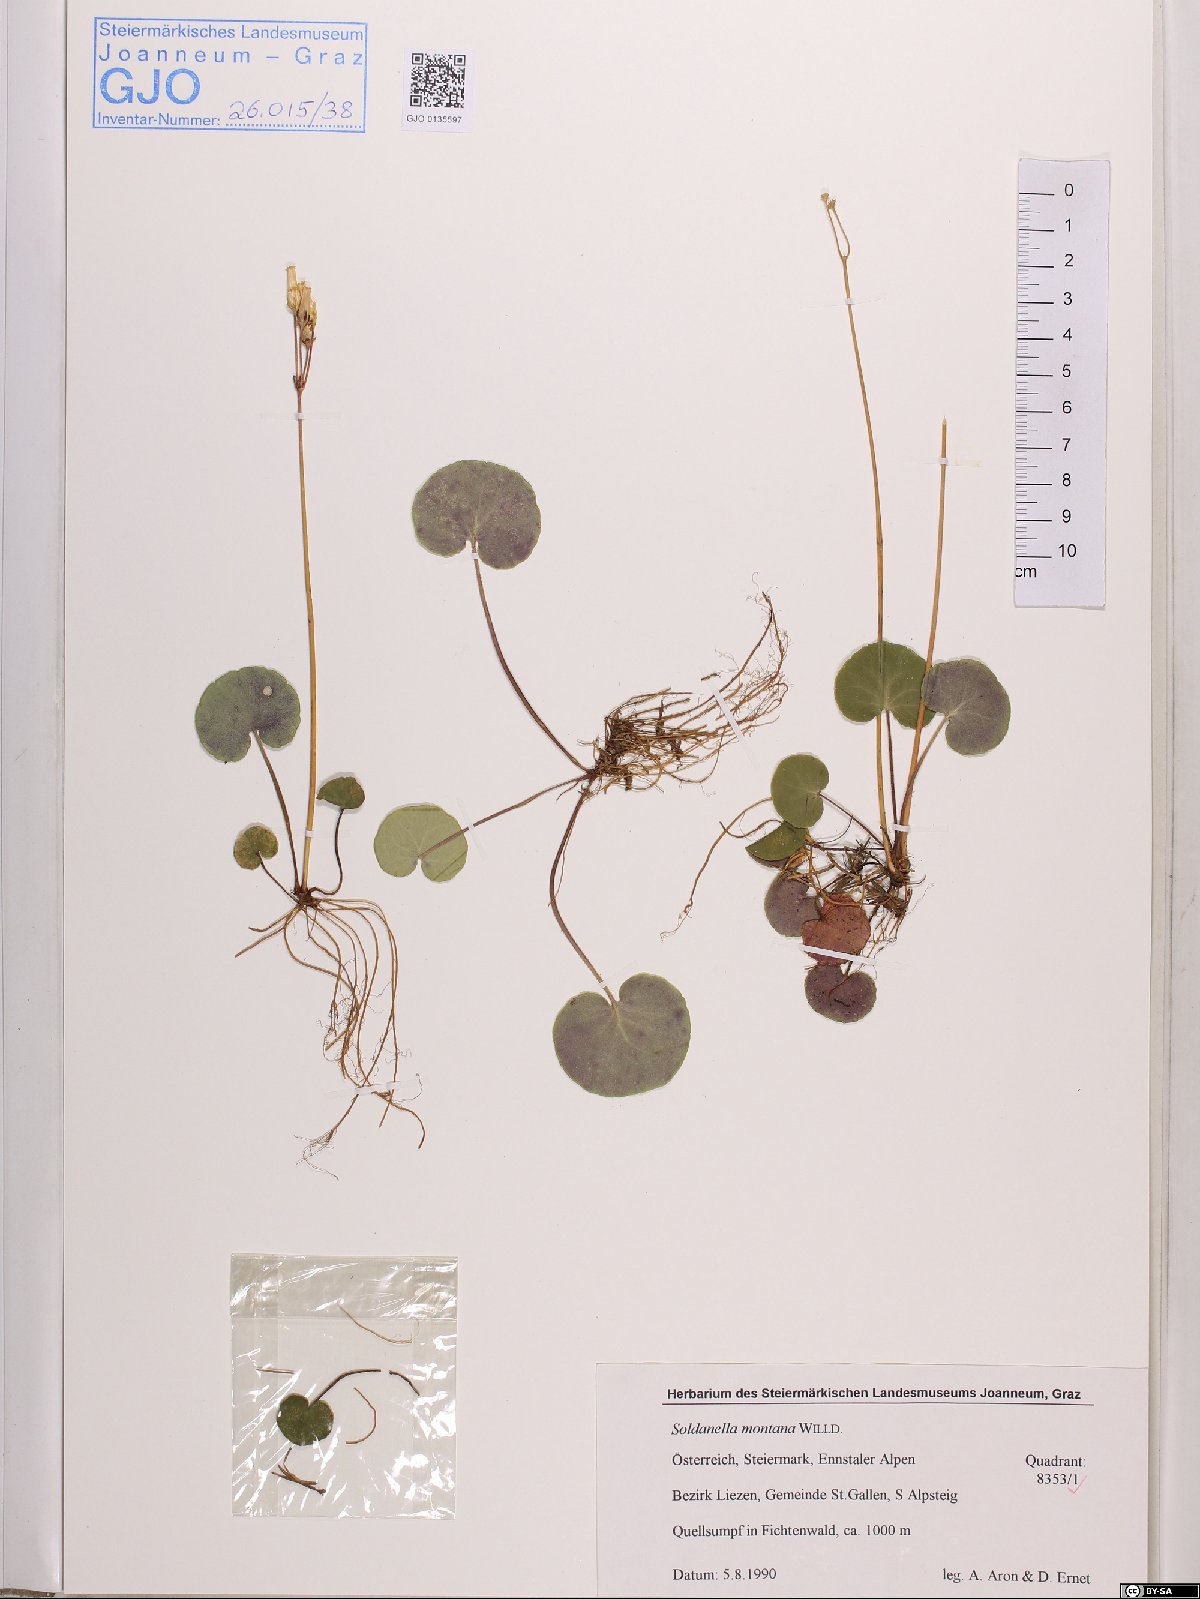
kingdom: Plantae
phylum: Tracheophyta
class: Magnoliopsida
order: Ericales
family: Primulaceae
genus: Soldanella
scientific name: Soldanella montana
